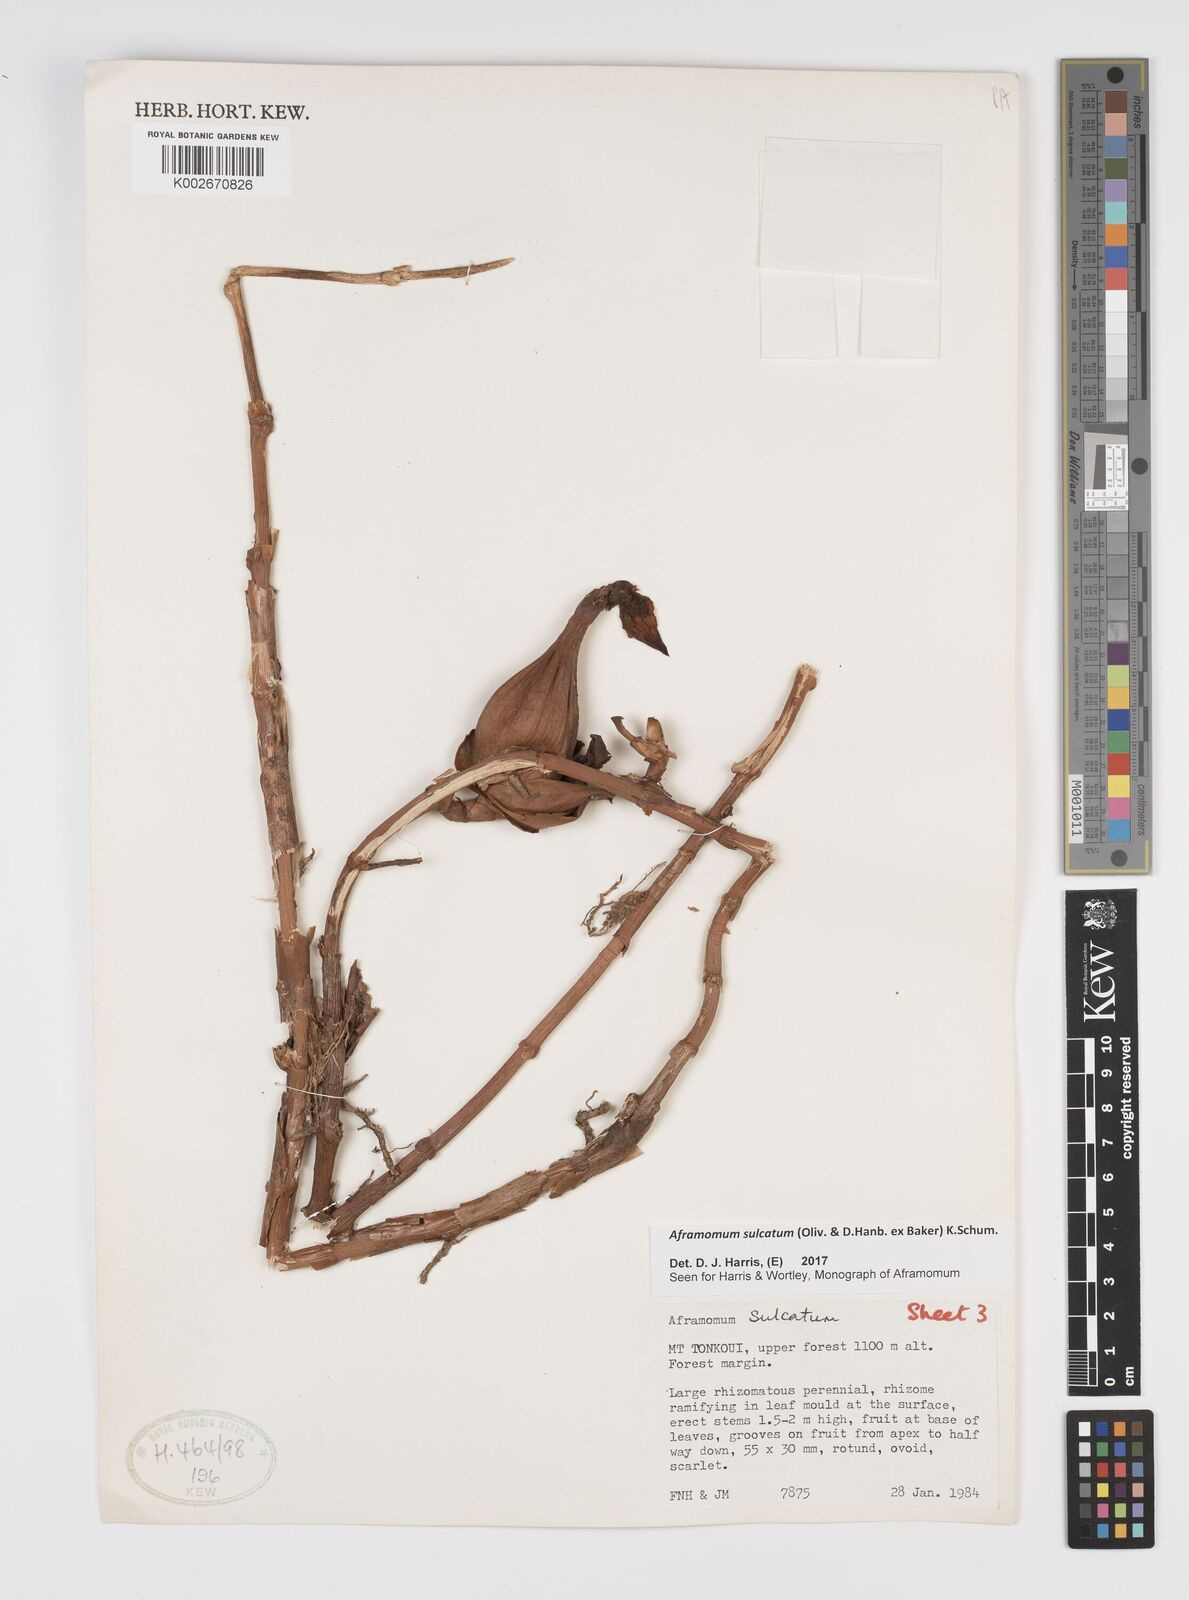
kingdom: Plantae
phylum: Tracheophyta
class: Liliopsida
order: Zingiberales
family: Zingiberaceae
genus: Aframomum
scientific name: Aframomum sulcatum
